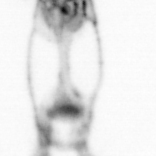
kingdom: Animalia
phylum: Arthropoda
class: Copepoda
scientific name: Copepoda
